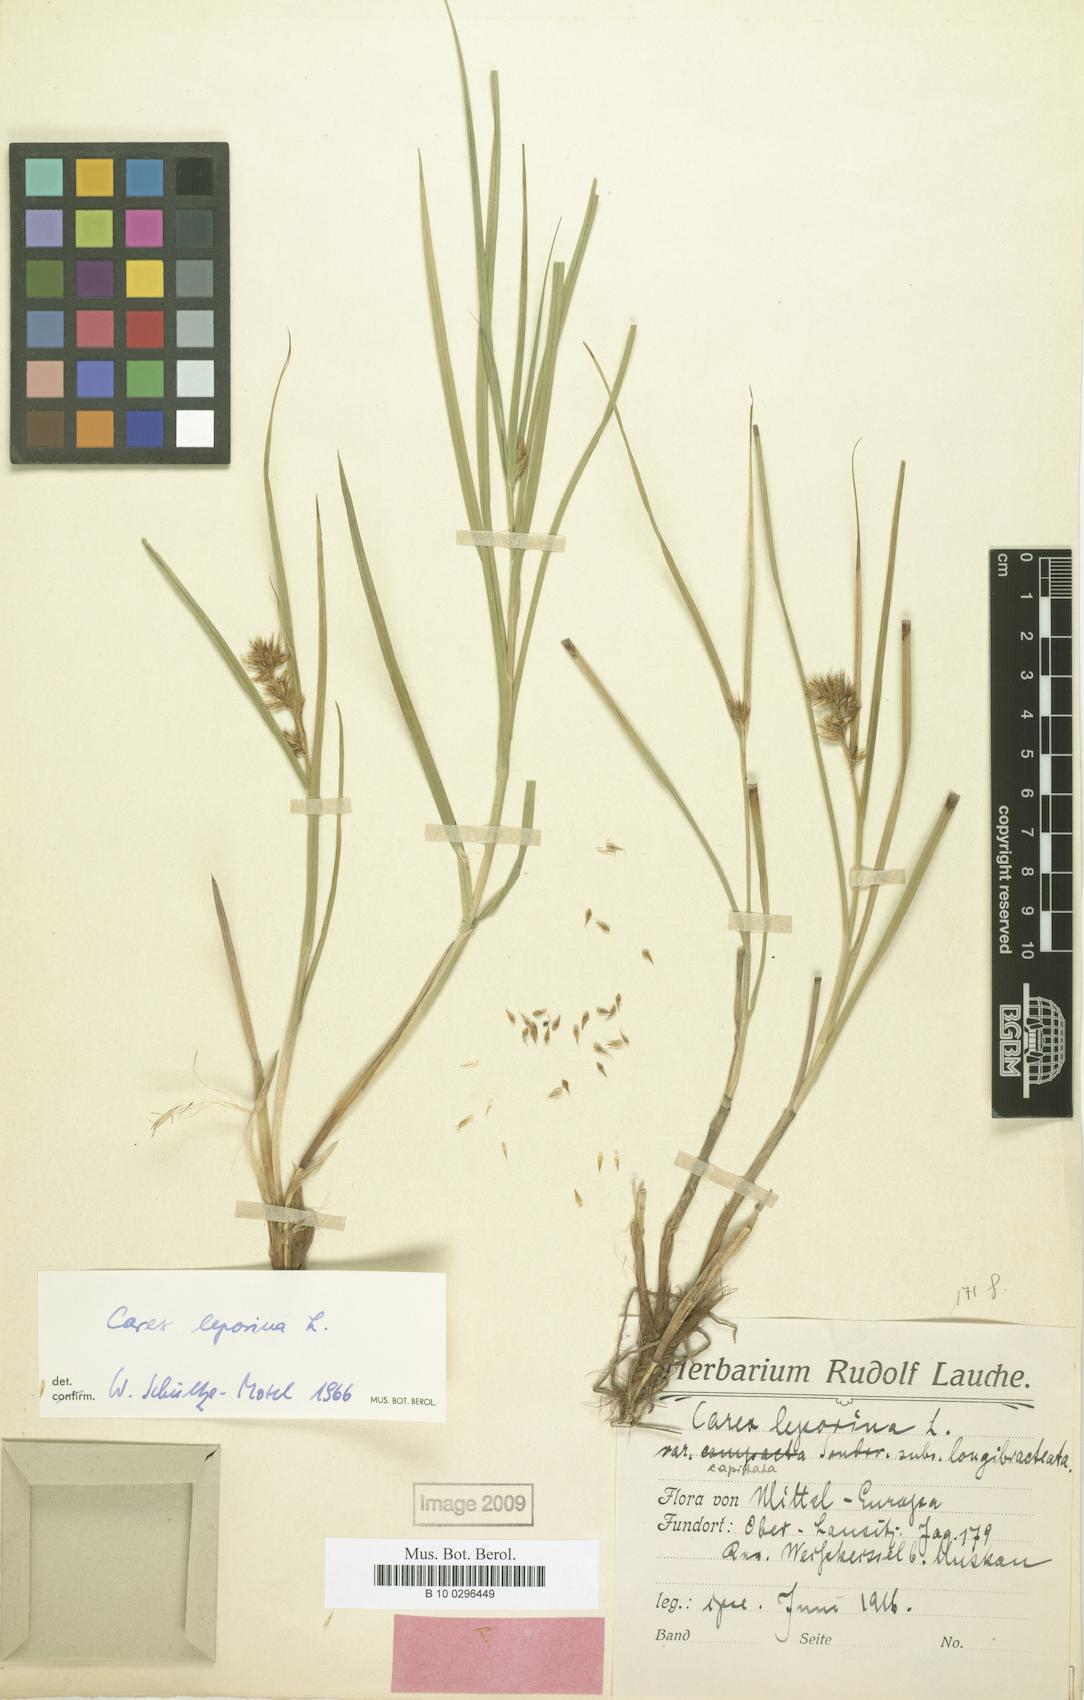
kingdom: Plantae
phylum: Tracheophyta
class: Liliopsida
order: Poales
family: Cyperaceae
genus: Carex
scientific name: Carex leporina
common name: Oval sedge
